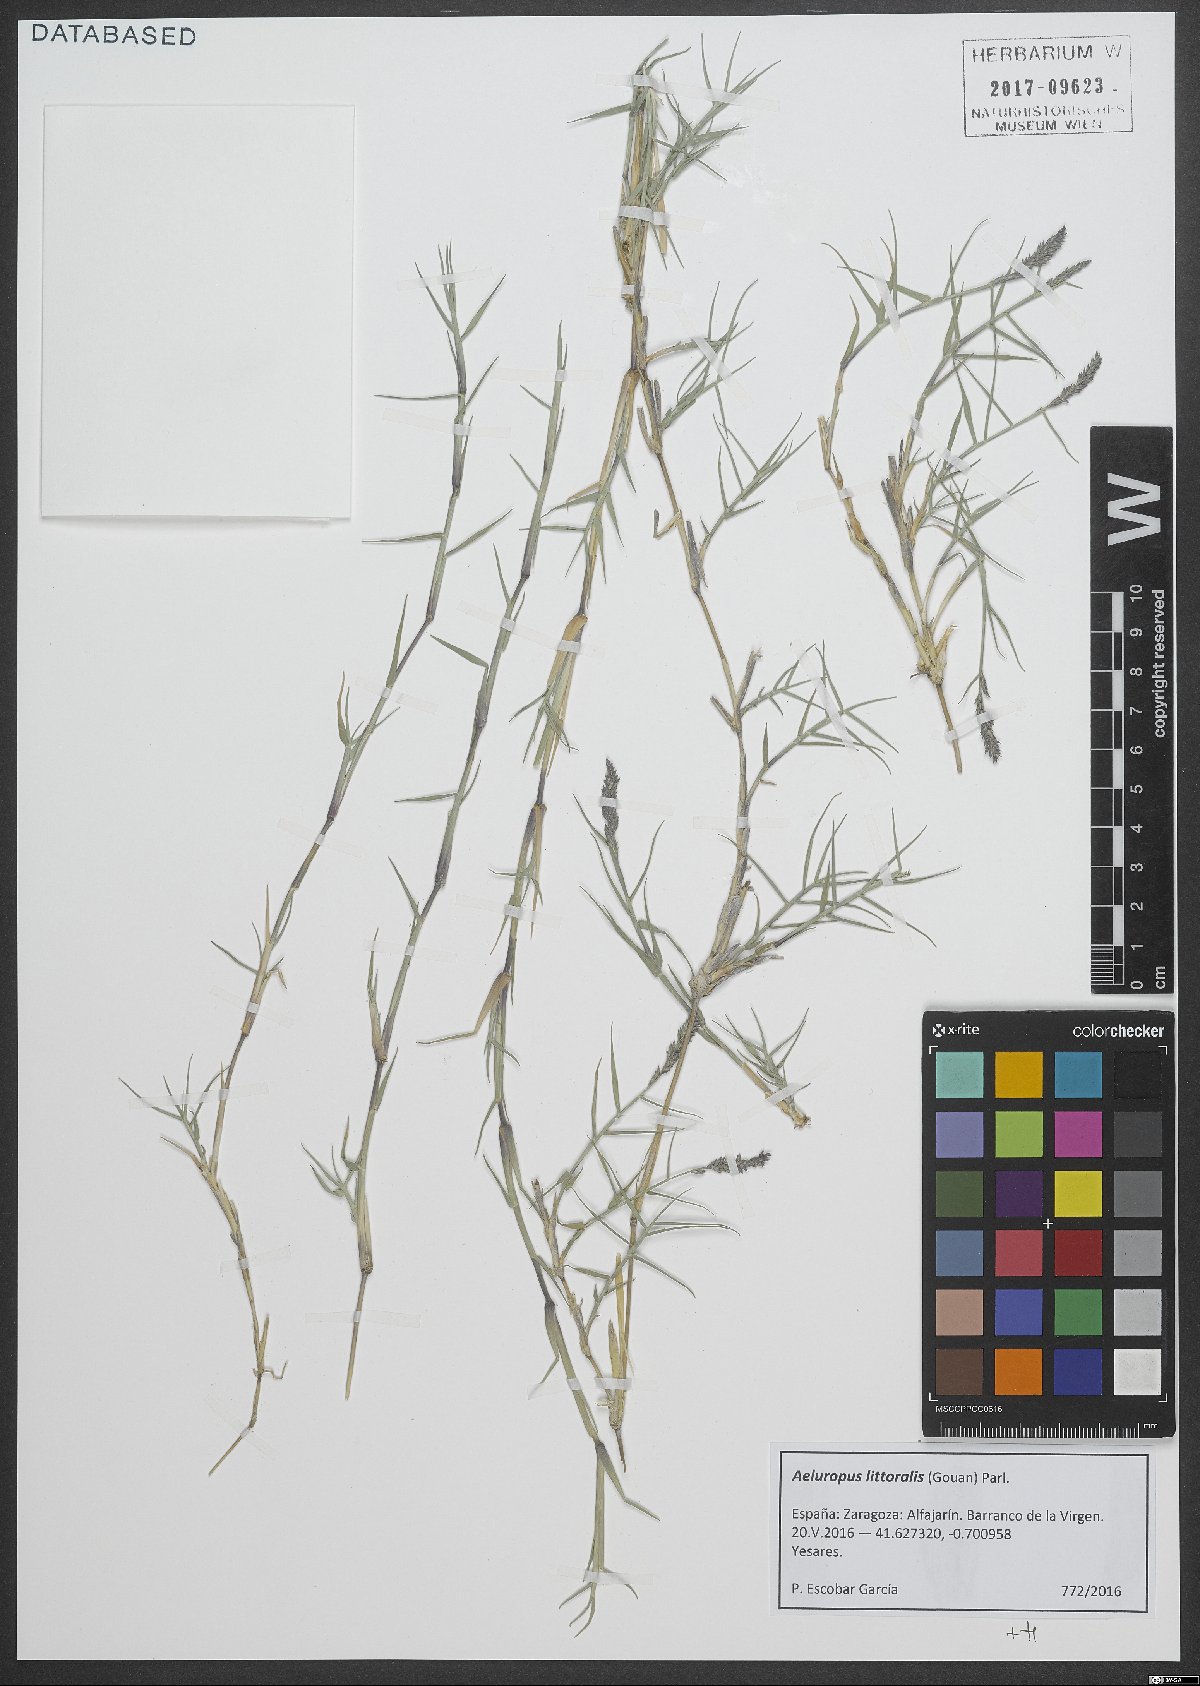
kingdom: Plantae
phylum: Tracheophyta
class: Liliopsida
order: Poales
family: Poaceae
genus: Aeluropus
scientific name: Aeluropus littoralis
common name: Indian walnut
